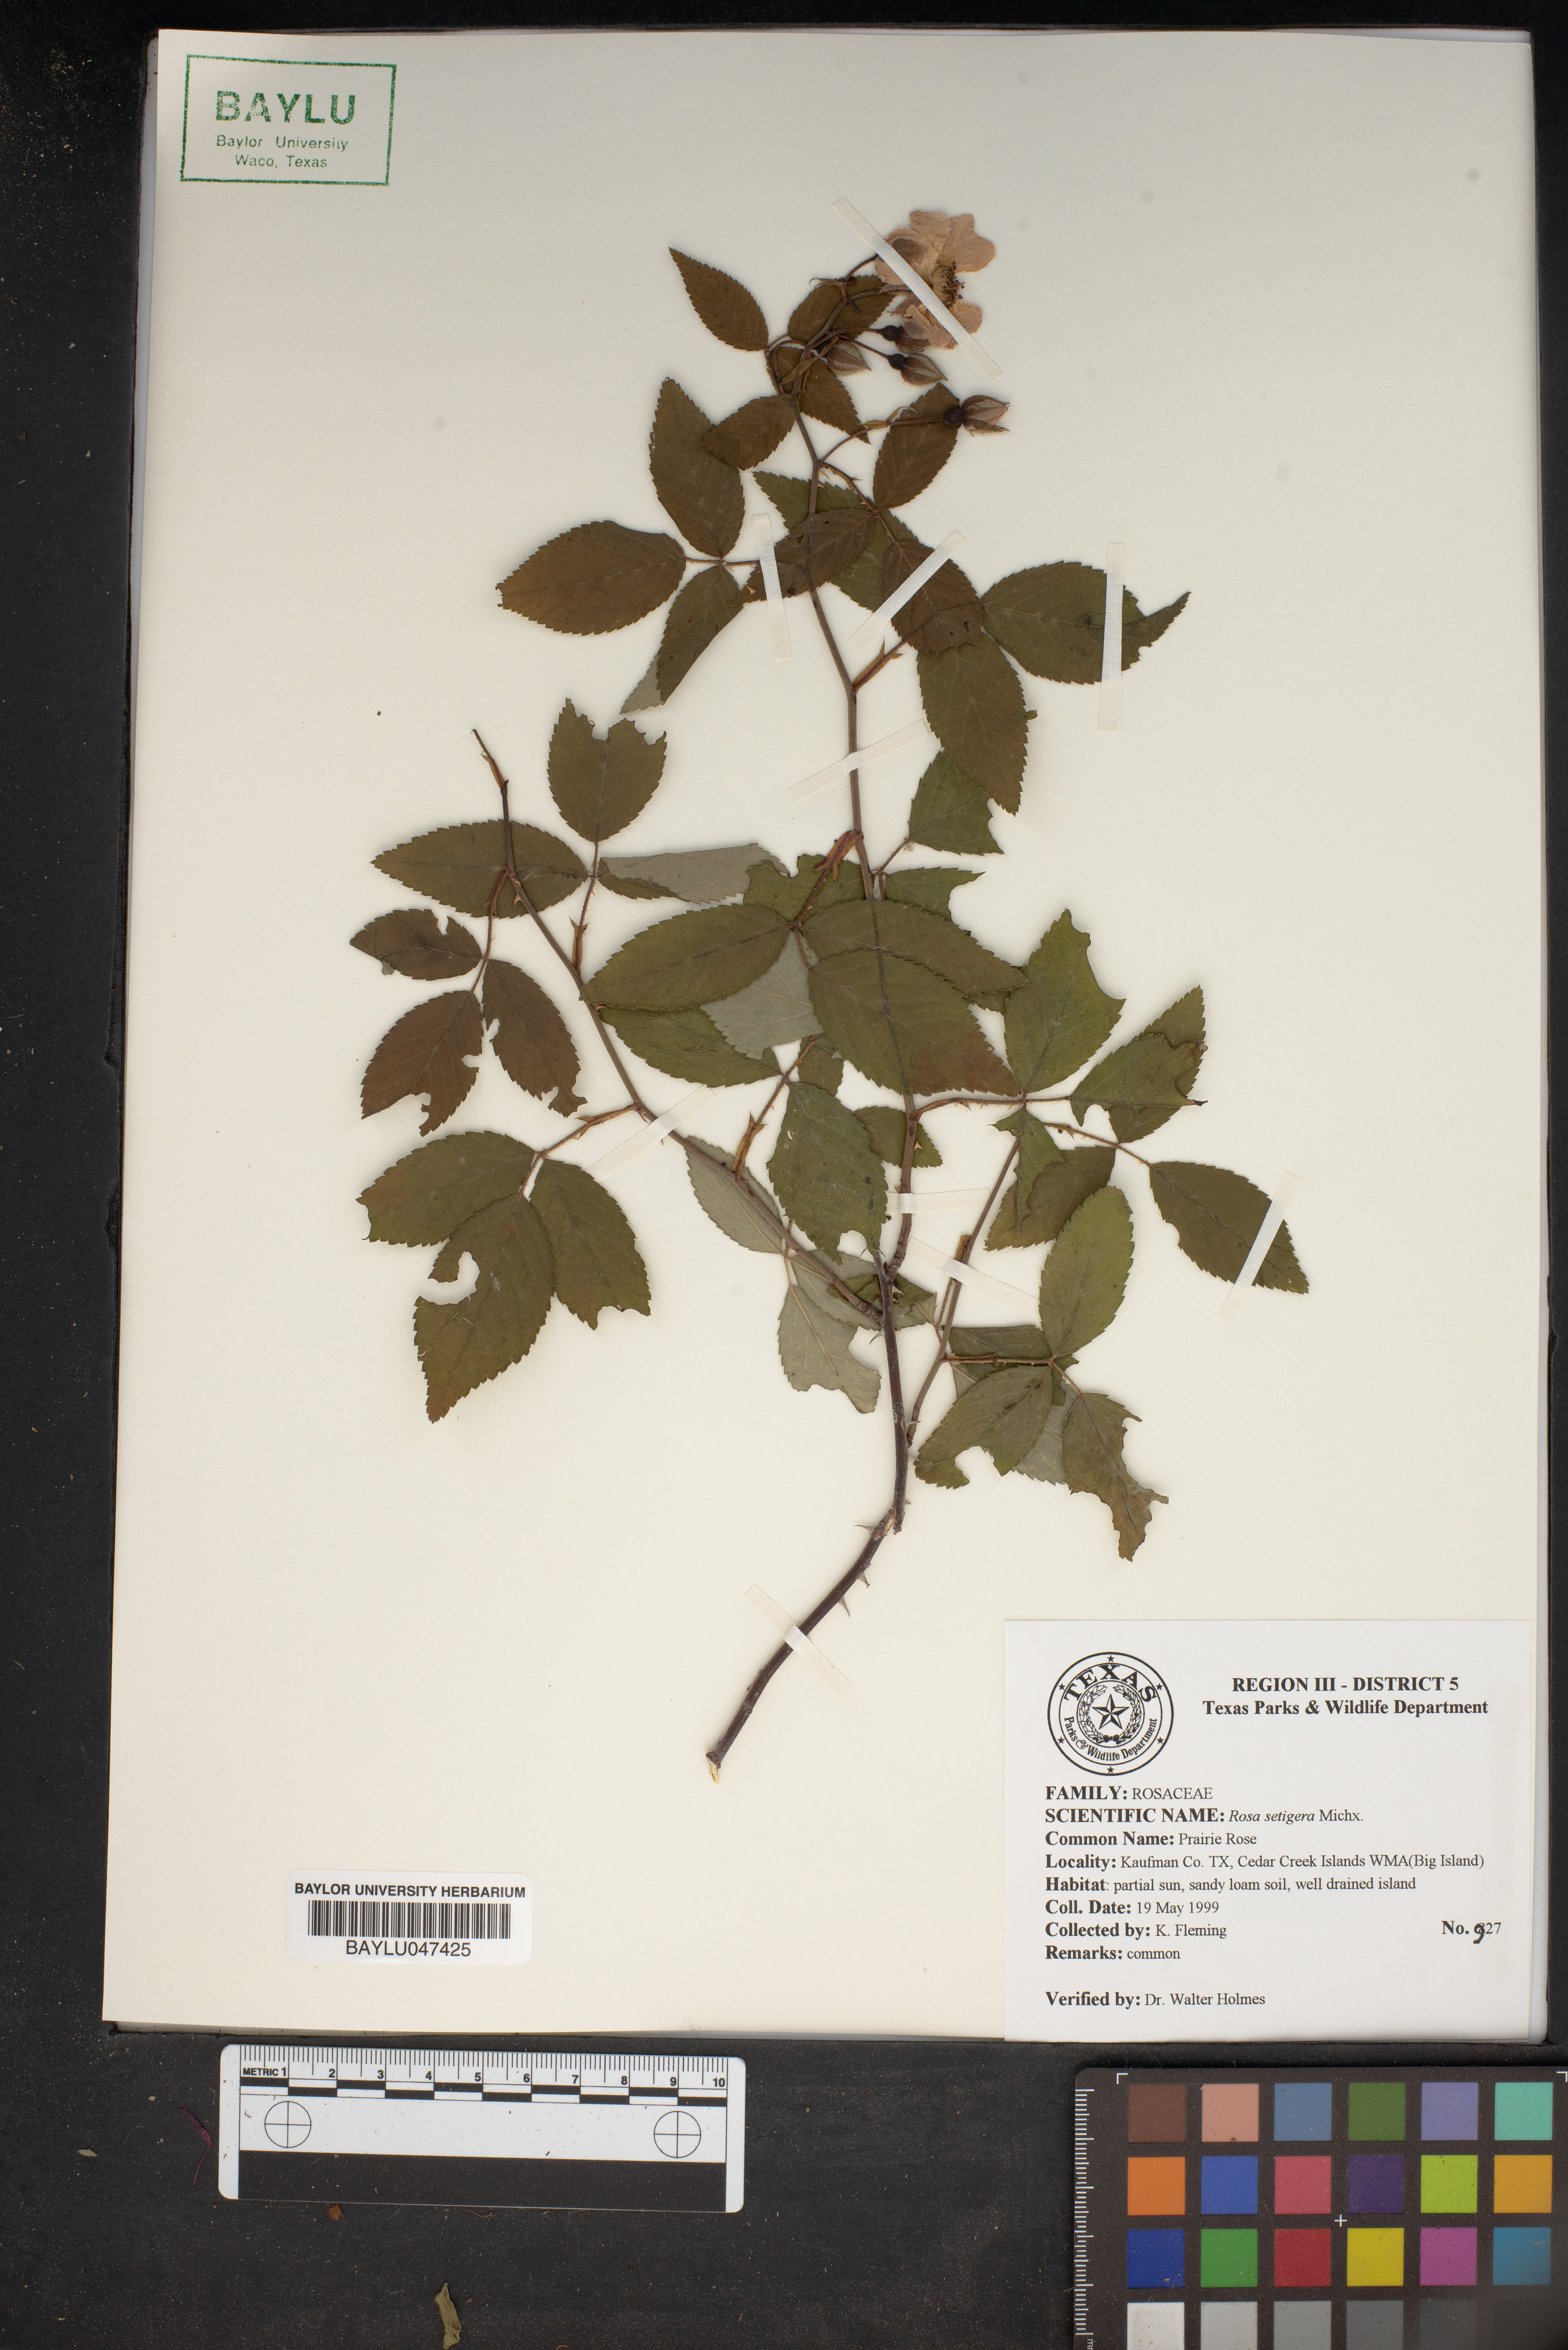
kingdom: Plantae
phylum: Tracheophyta
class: Magnoliopsida
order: Rosales
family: Rosaceae
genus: Rosa
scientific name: Rosa setigera
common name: Prairie rose
